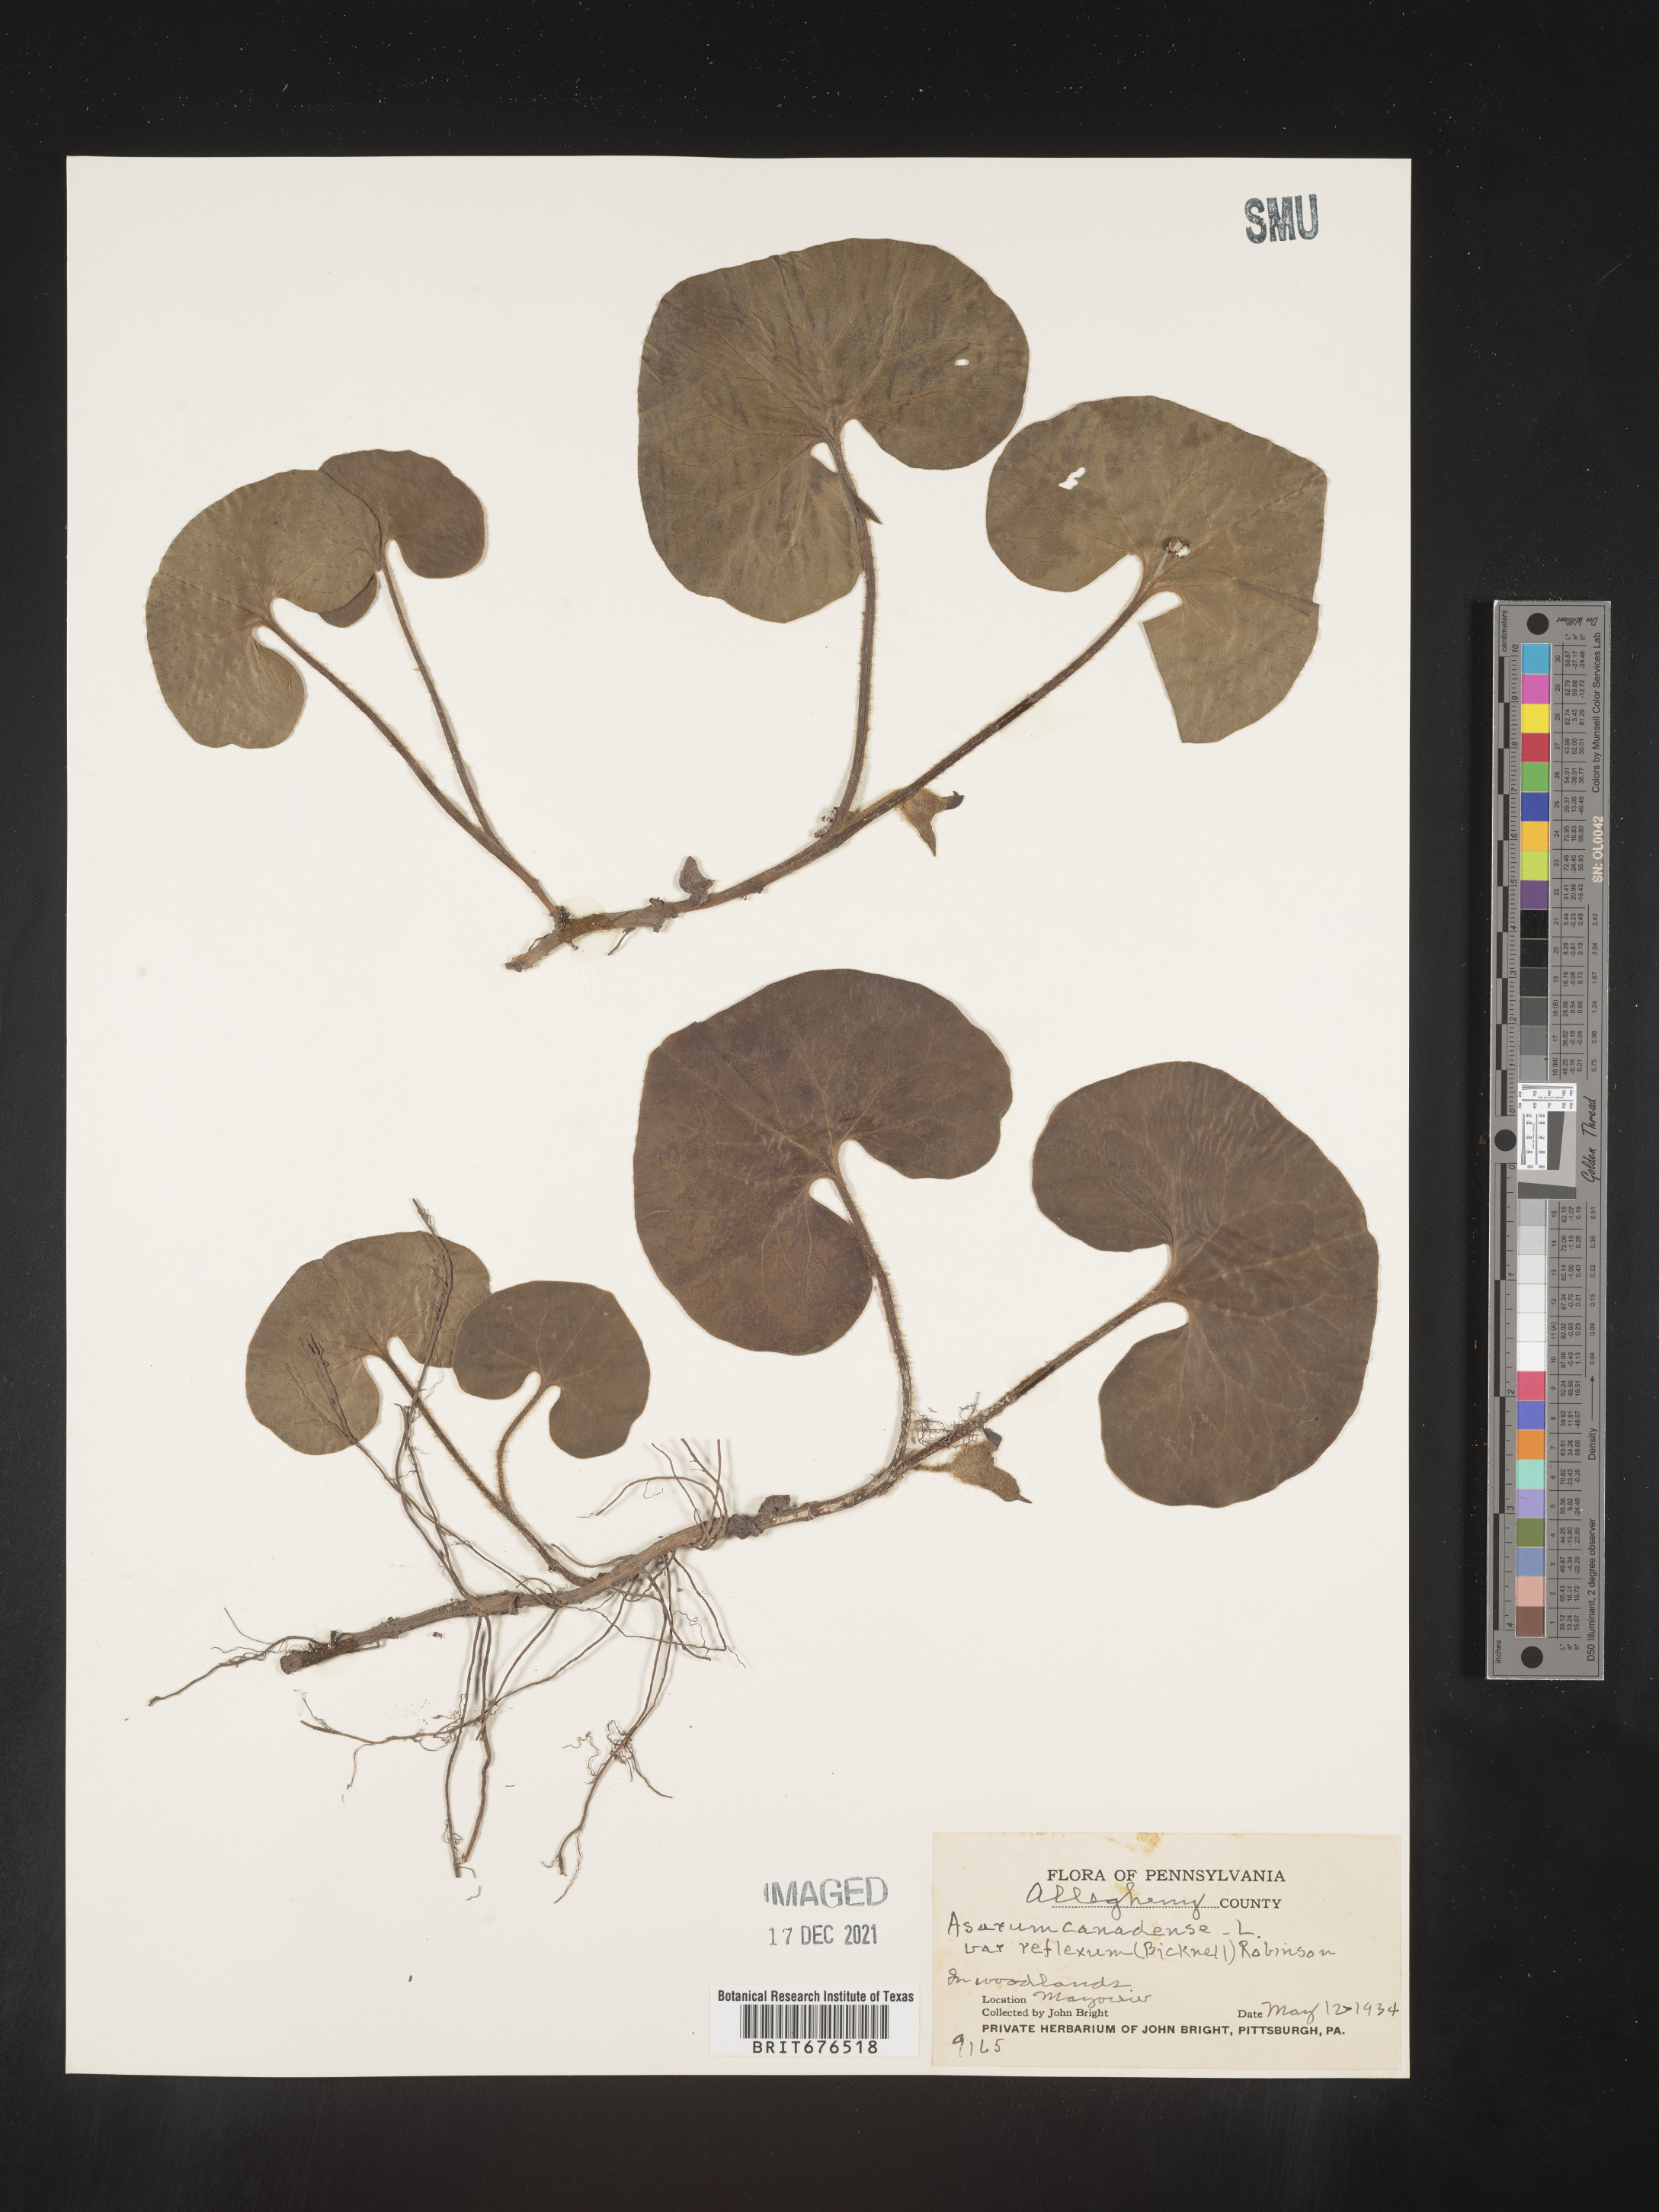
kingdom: Plantae
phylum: Tracheophyta
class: Magnoliopsida
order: Piperales
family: Aristolochiaceae
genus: Asarum
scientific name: Asarum canadense
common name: Wild ginger
